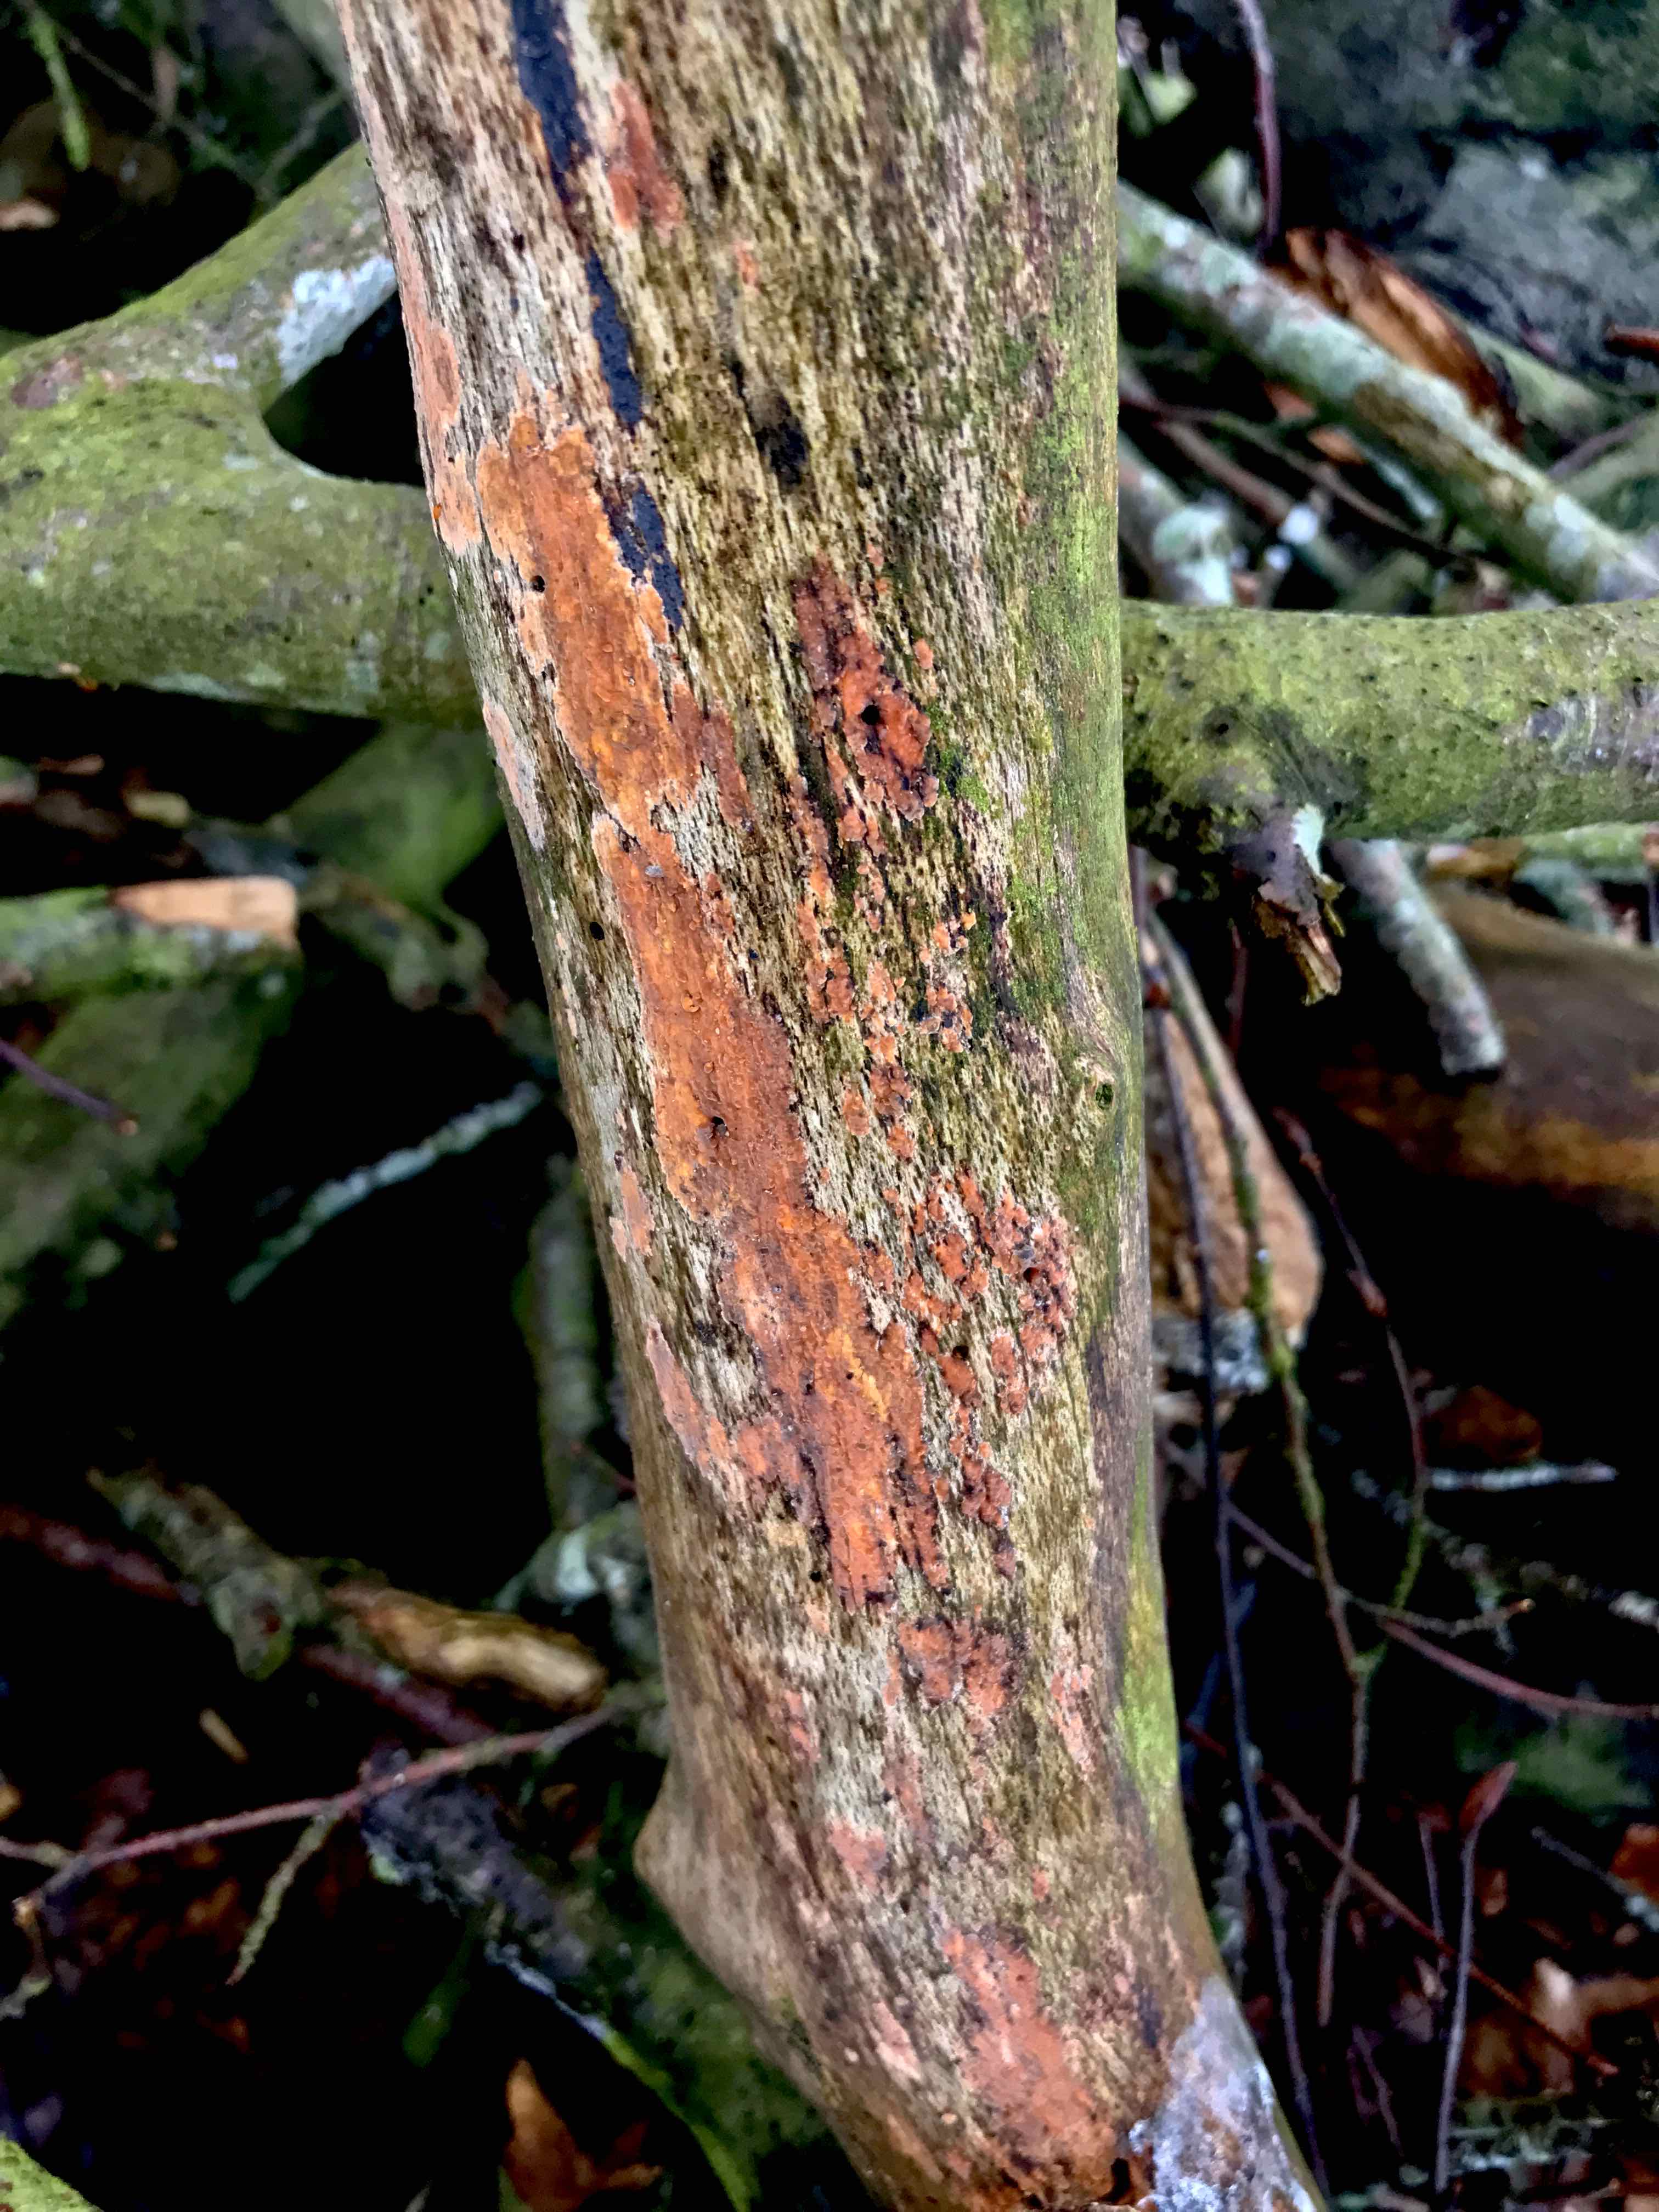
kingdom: Fungi
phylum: Basidiomycota
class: Agaricomycetes
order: Russulales
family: Peniophoraceae
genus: Peniophora
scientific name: Peniophora incarnata
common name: laksefarvet voksskind
